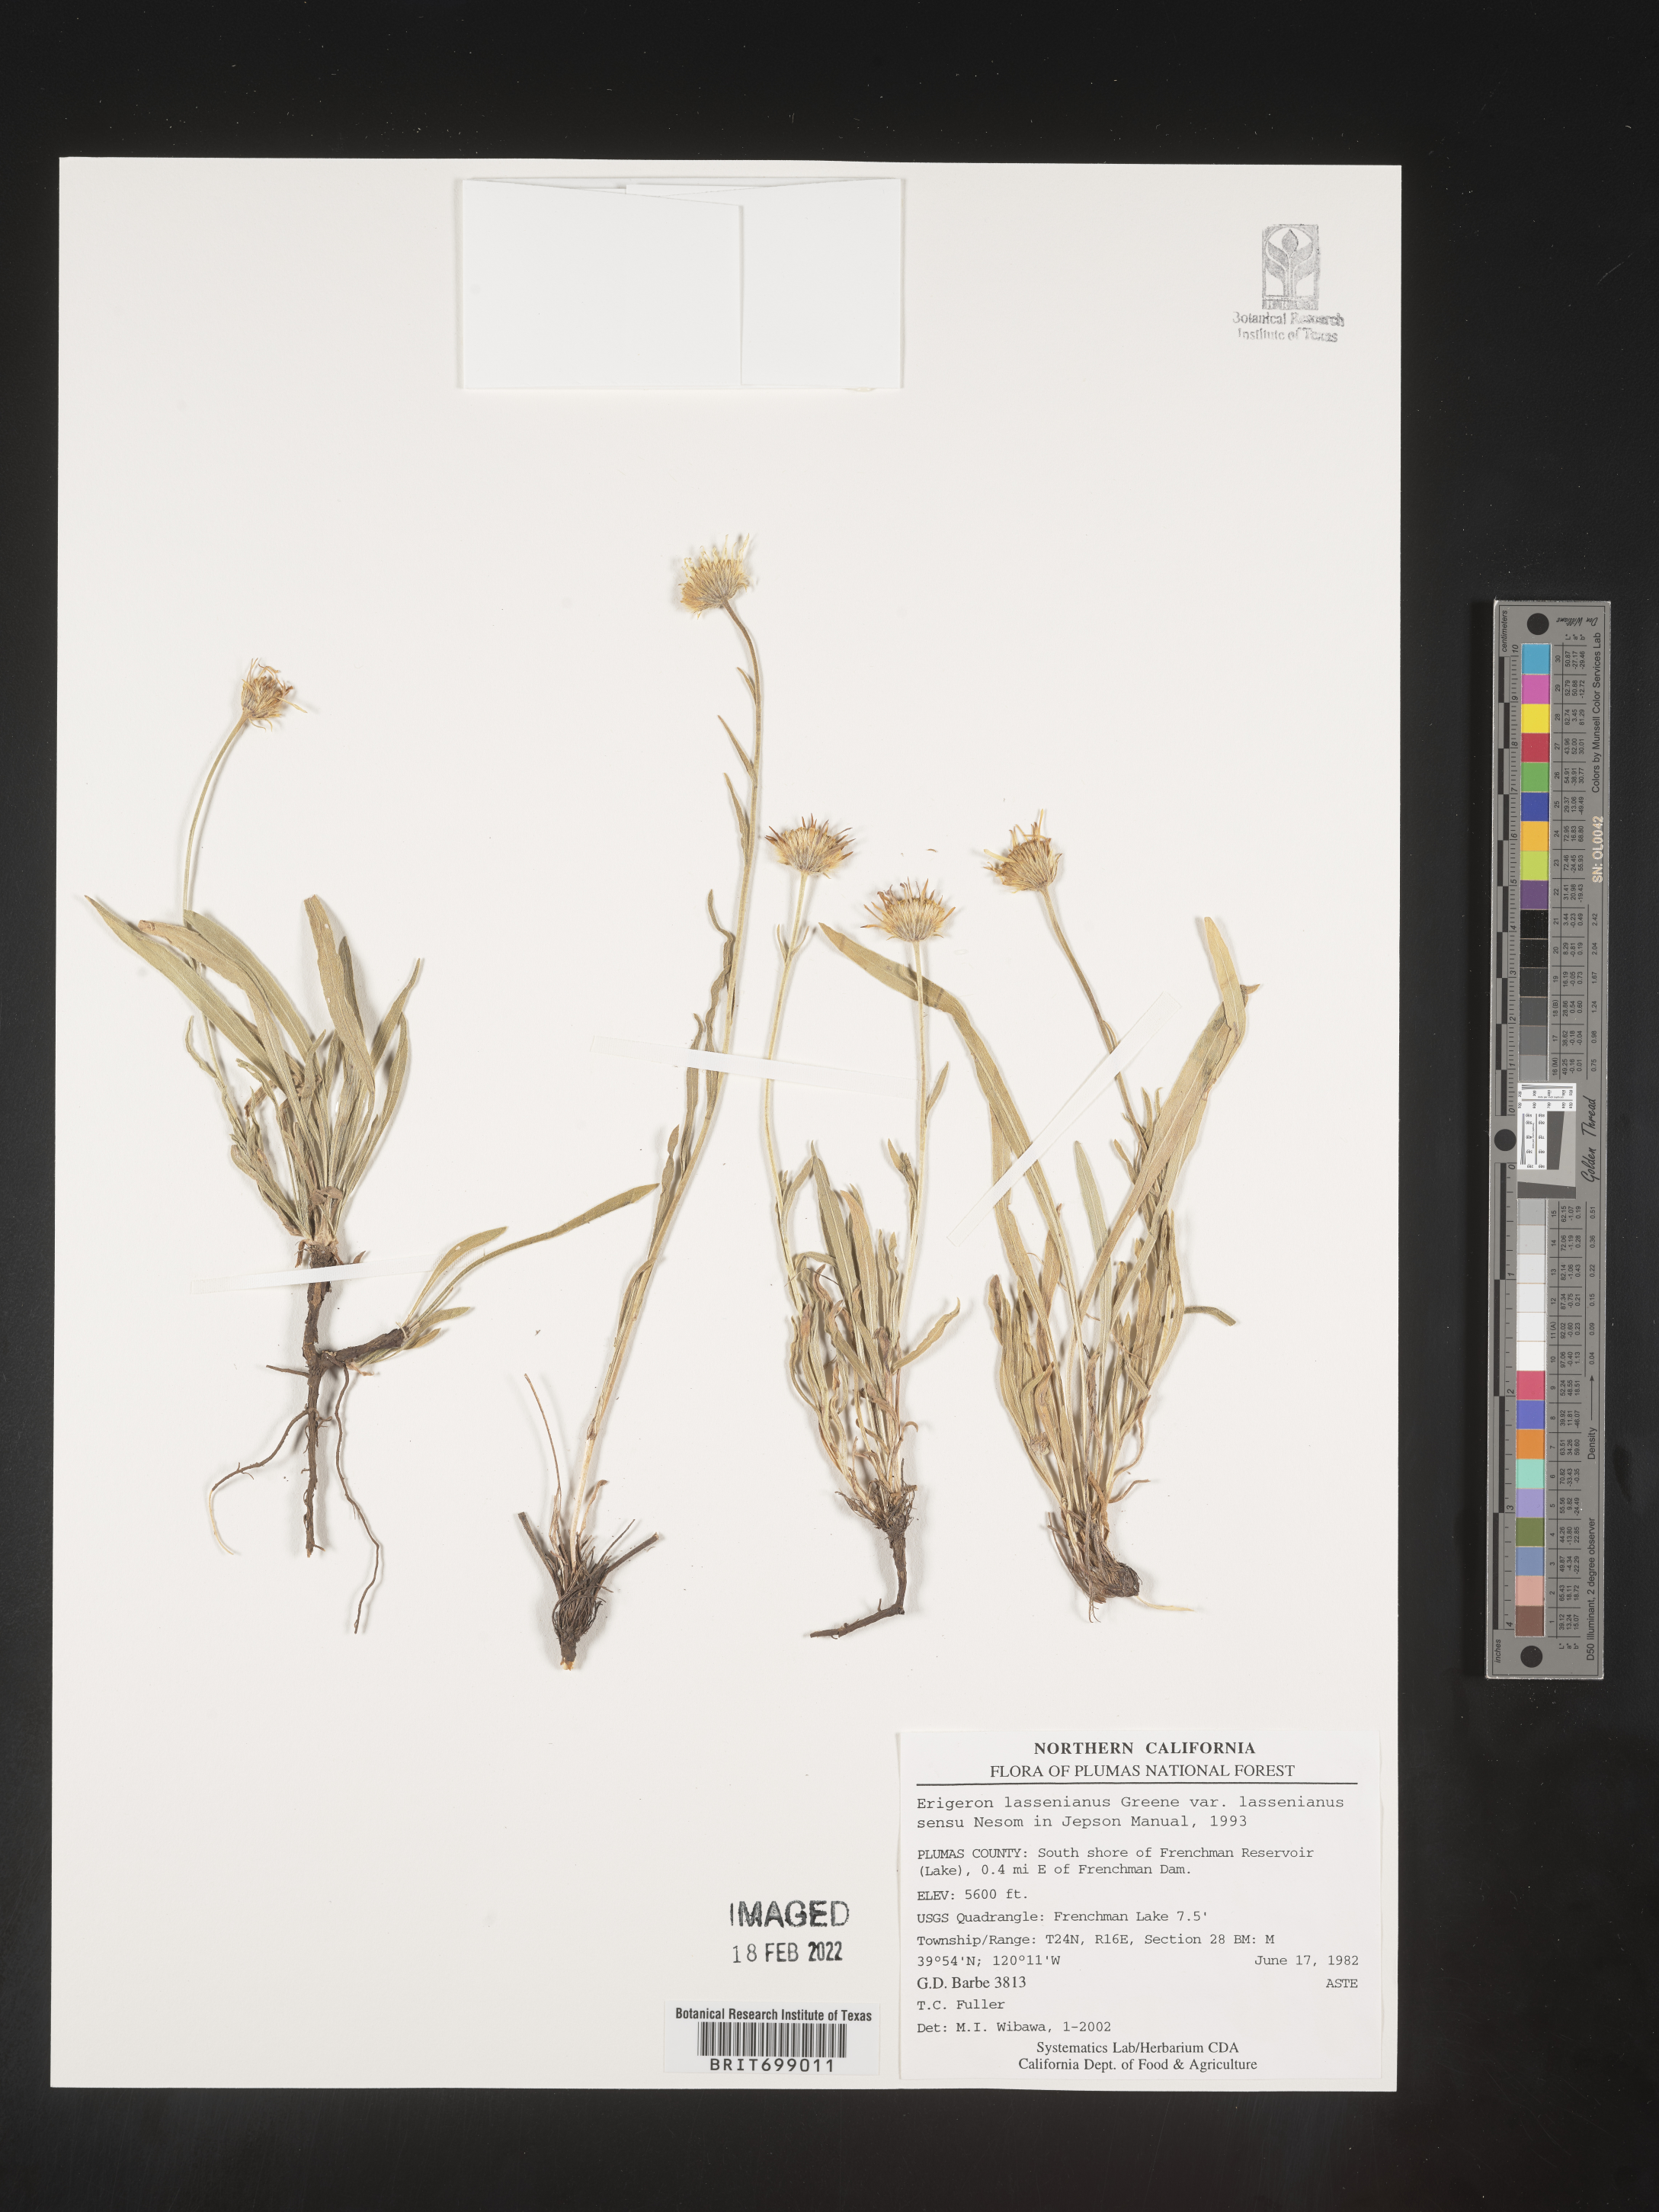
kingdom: Plantae
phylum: Tracheophyta
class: Magnoliopsida
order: Asterales
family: Asteraceae
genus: Erigeron
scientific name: Erigeron lassenianus
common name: Mt. lassen fleabane
